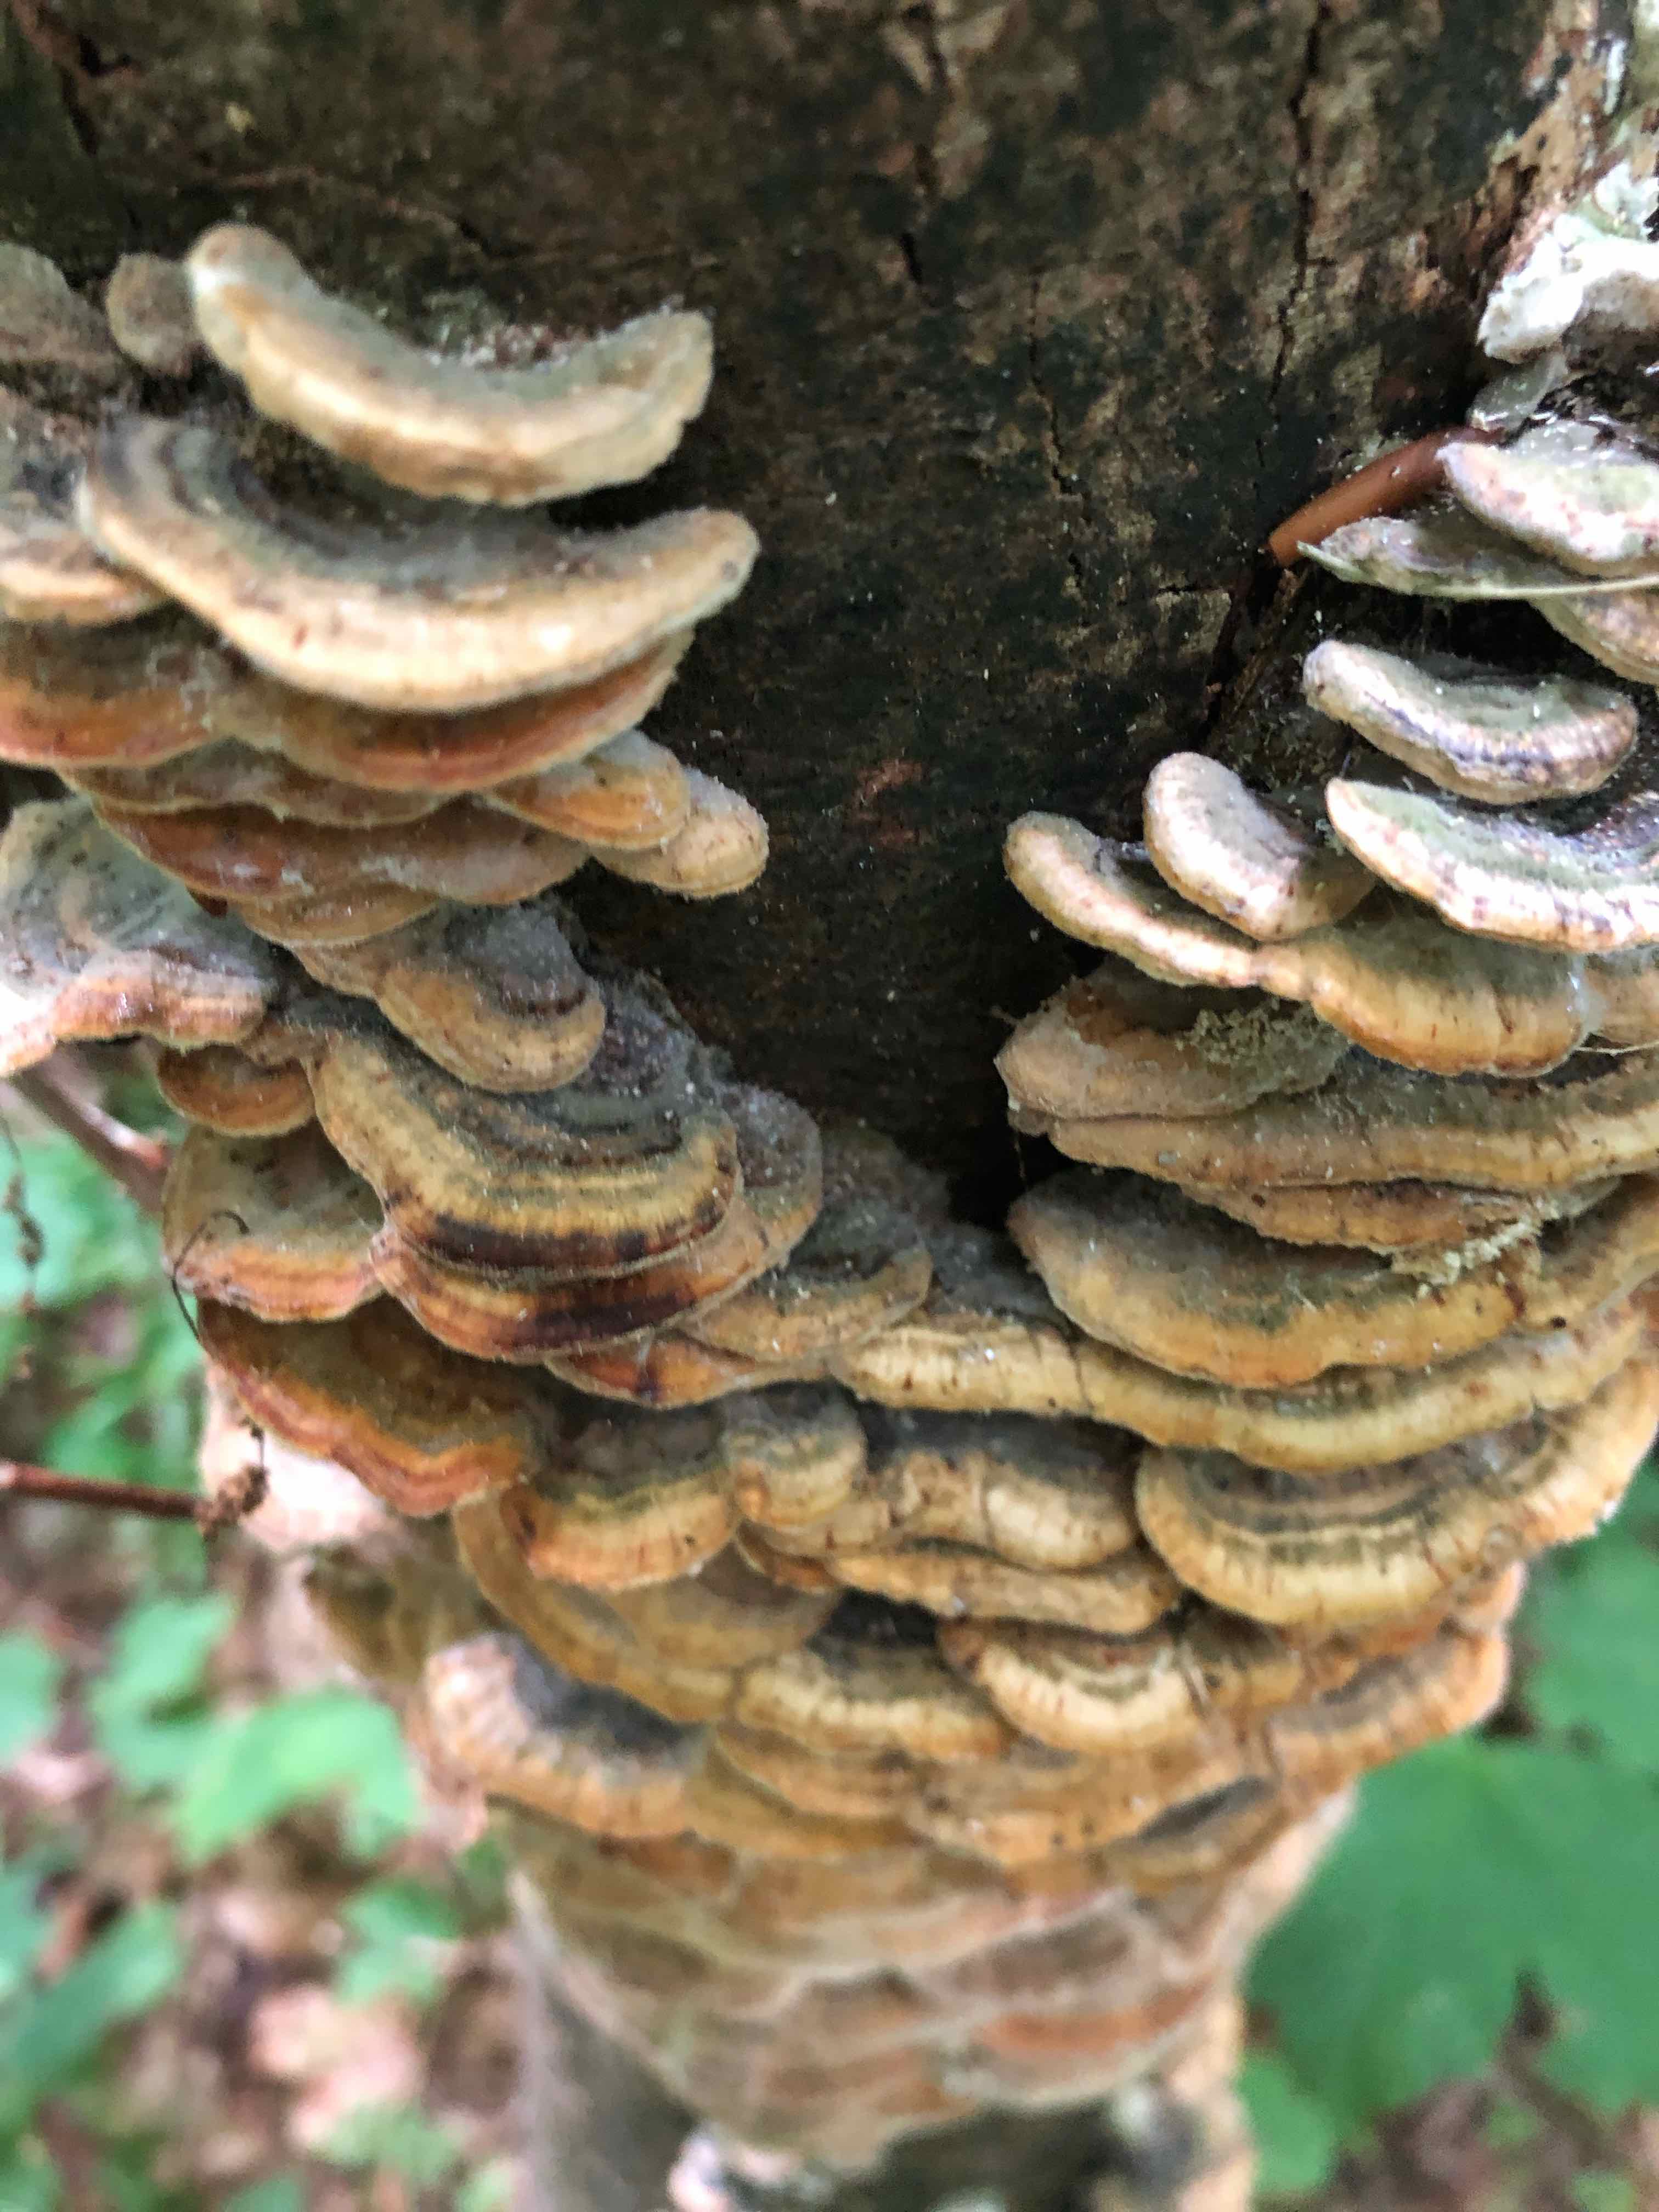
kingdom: Fungi
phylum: Basidiomycota
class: Agaricomycetes
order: Polyporales
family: Polyporaceae
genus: Trametes
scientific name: Trametes versicolor
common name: broget læderporesvamp
